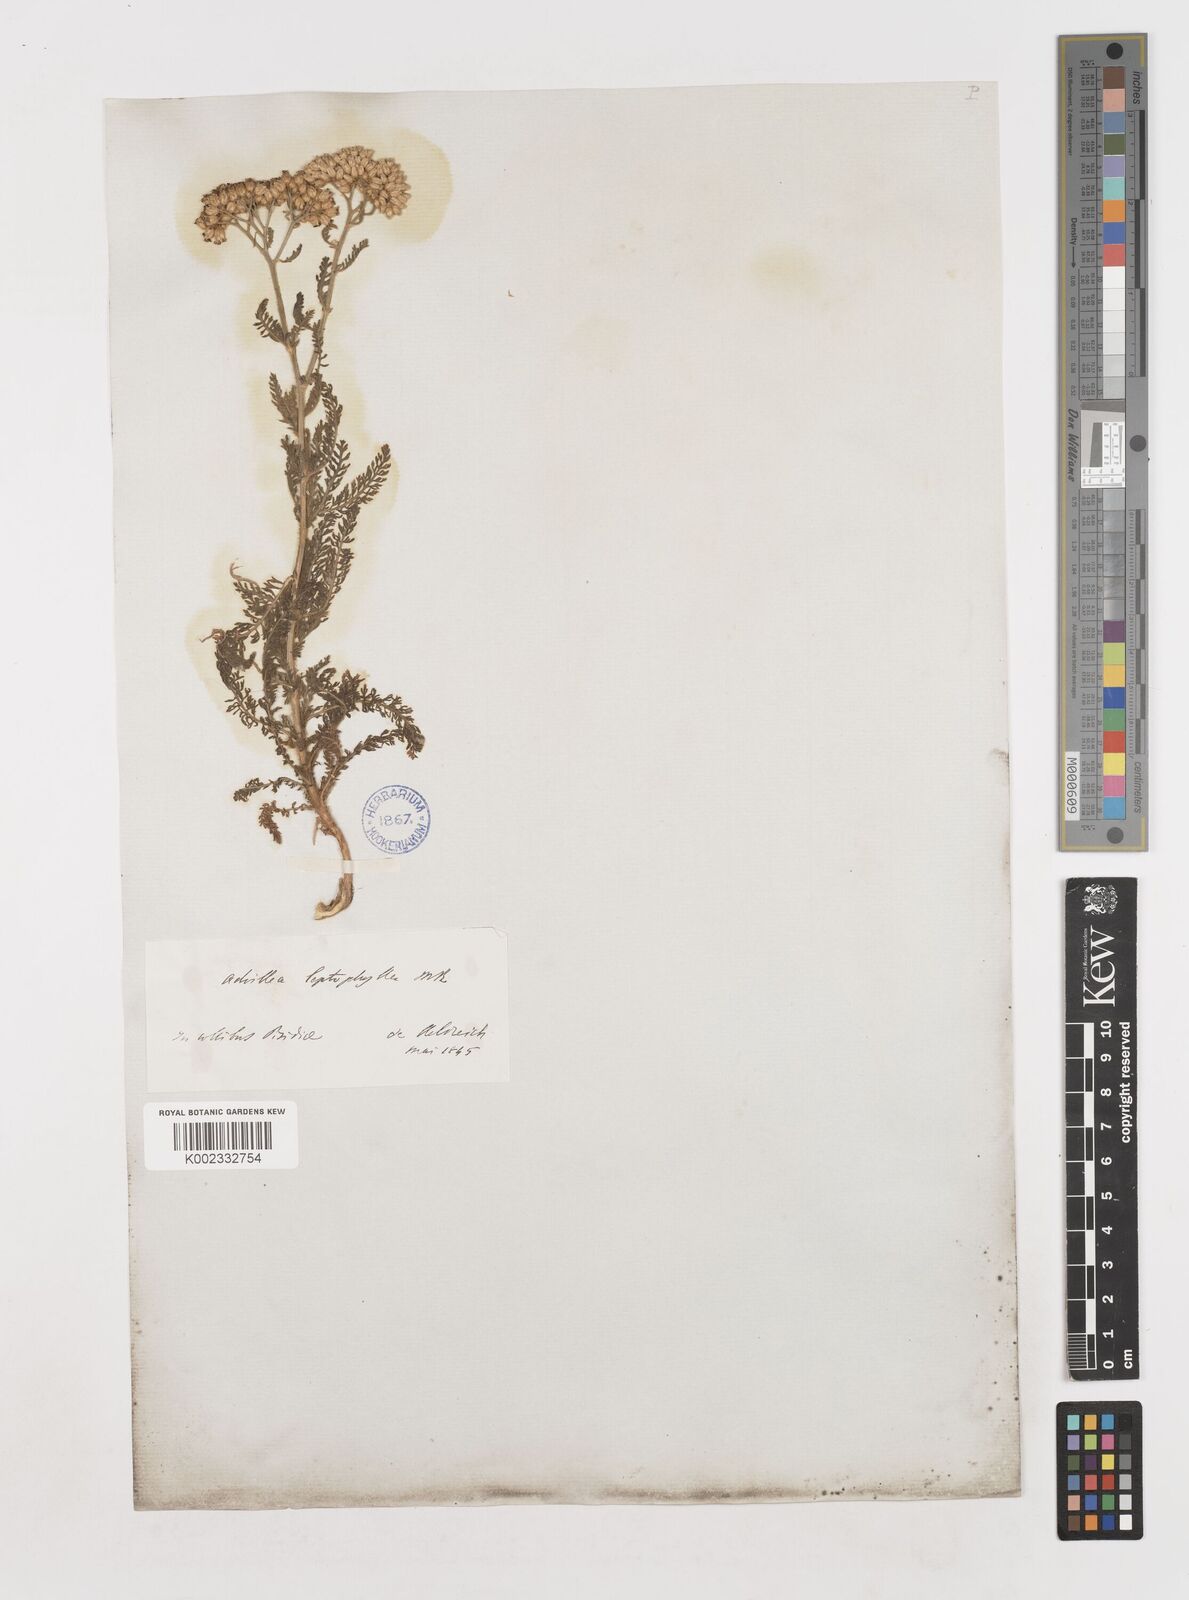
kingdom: Plantae
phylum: Tracheophyta
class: Magnoliopsida
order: Asterales
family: Asteraceae
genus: Achillea
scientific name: Achillea micrantha
